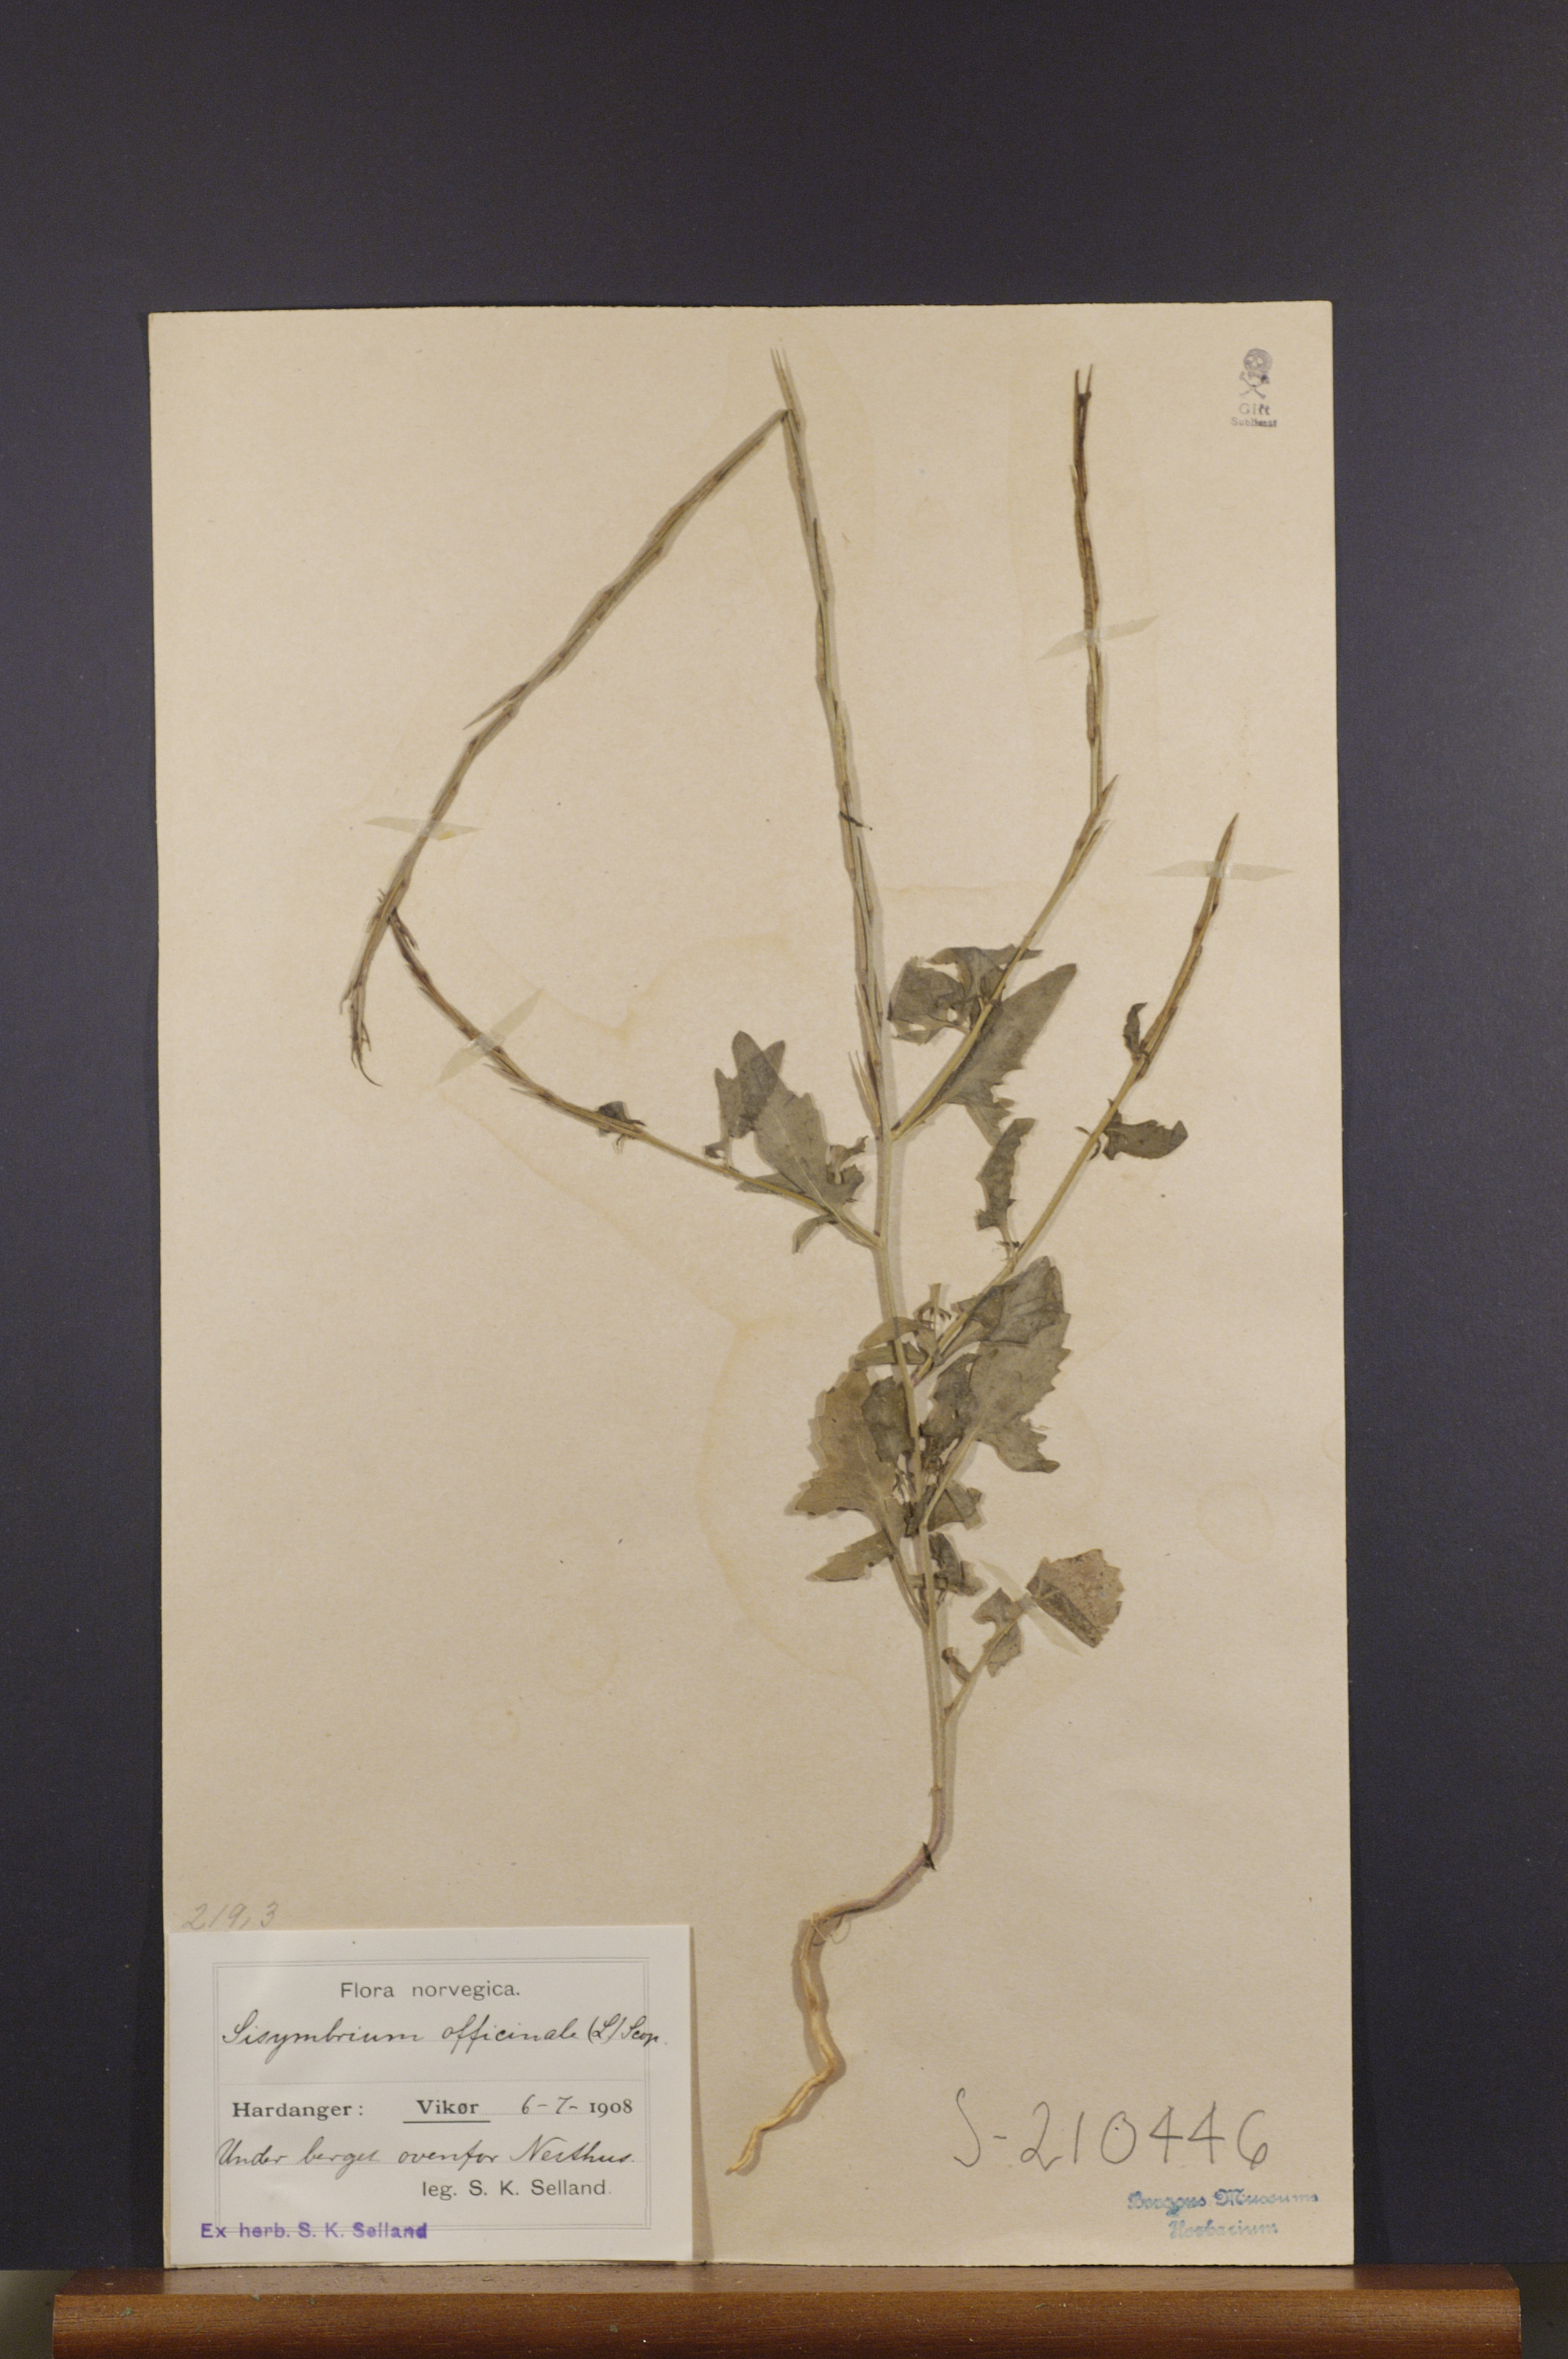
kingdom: Plantae
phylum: Tracheophyta
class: Magnoliopsida
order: Brassicales
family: Brassicaceae
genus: Sisymbrium
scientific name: Sisymbrium officinale
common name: Hedge mustard
